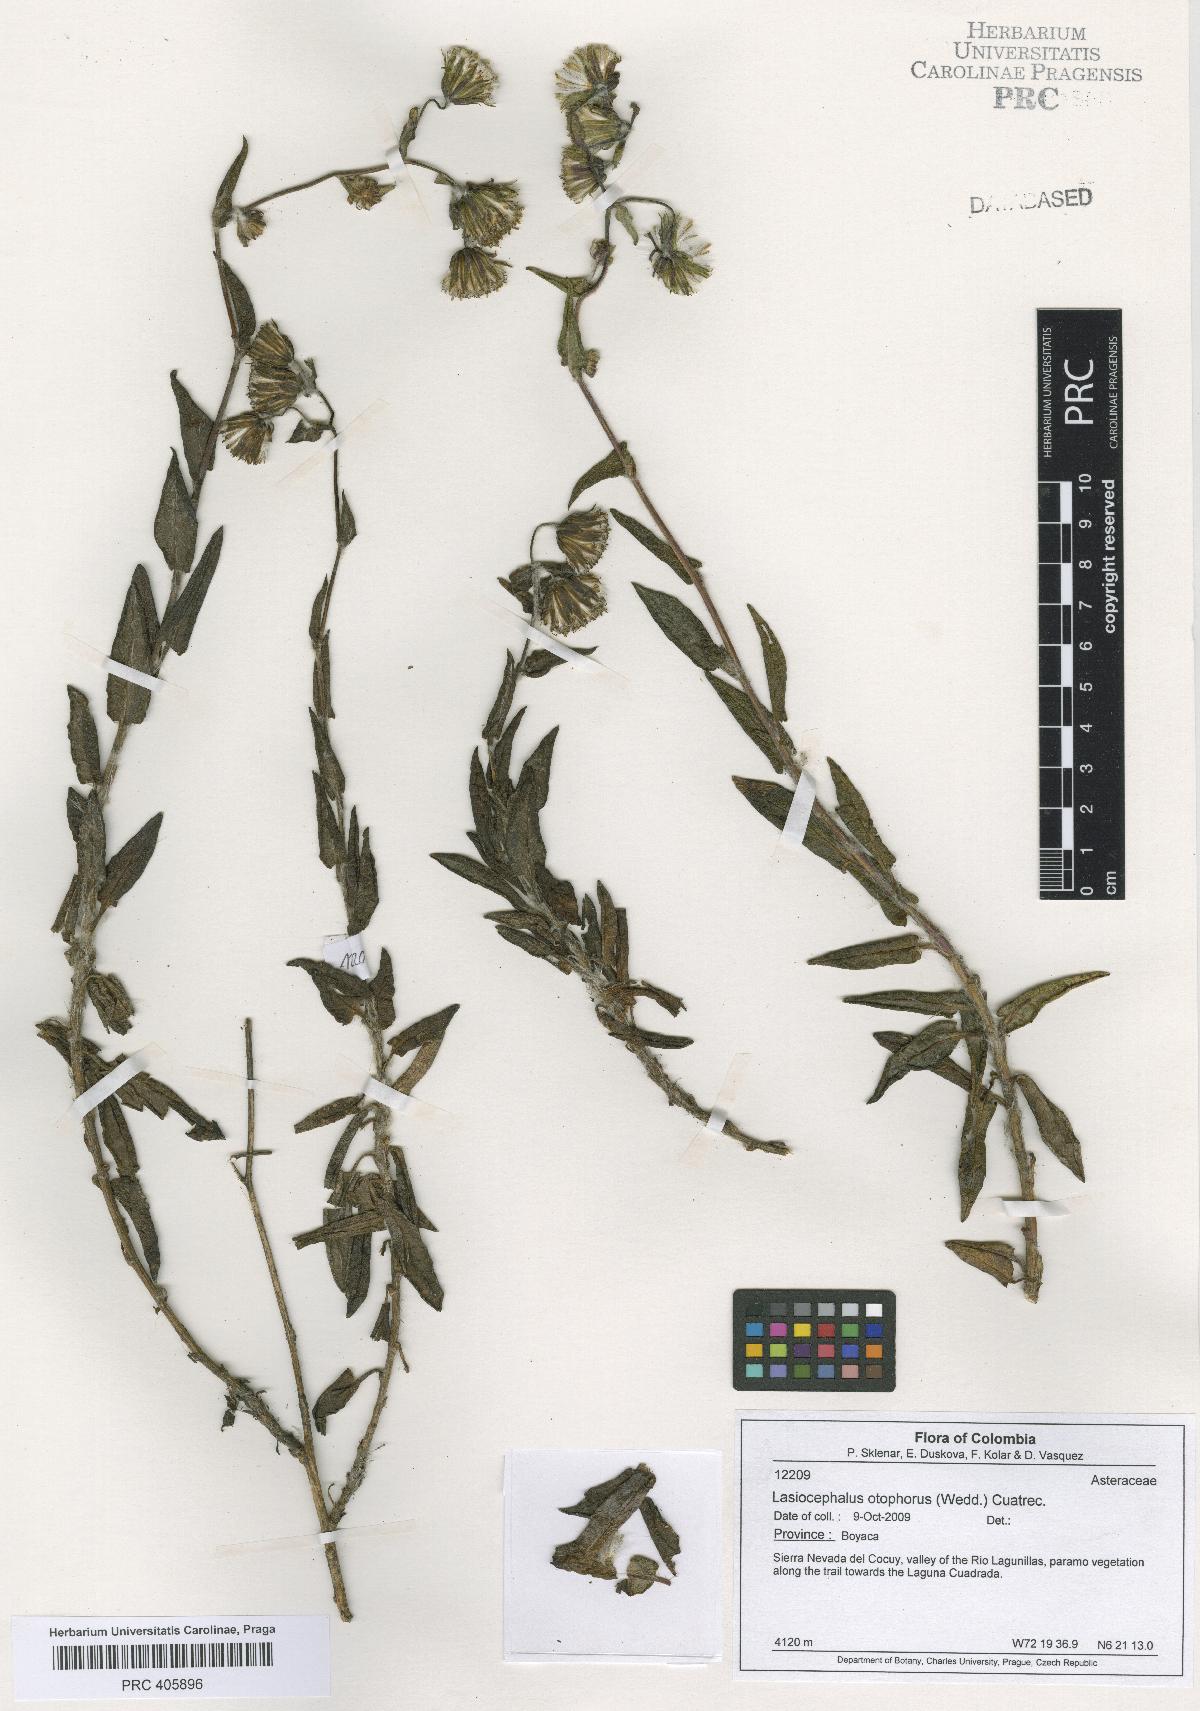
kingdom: Plantae
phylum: Tracheophyta
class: Magnoliopsida
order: Asterales
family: Asteraceae
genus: Aetheolaena
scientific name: Aetheolaena otophora
